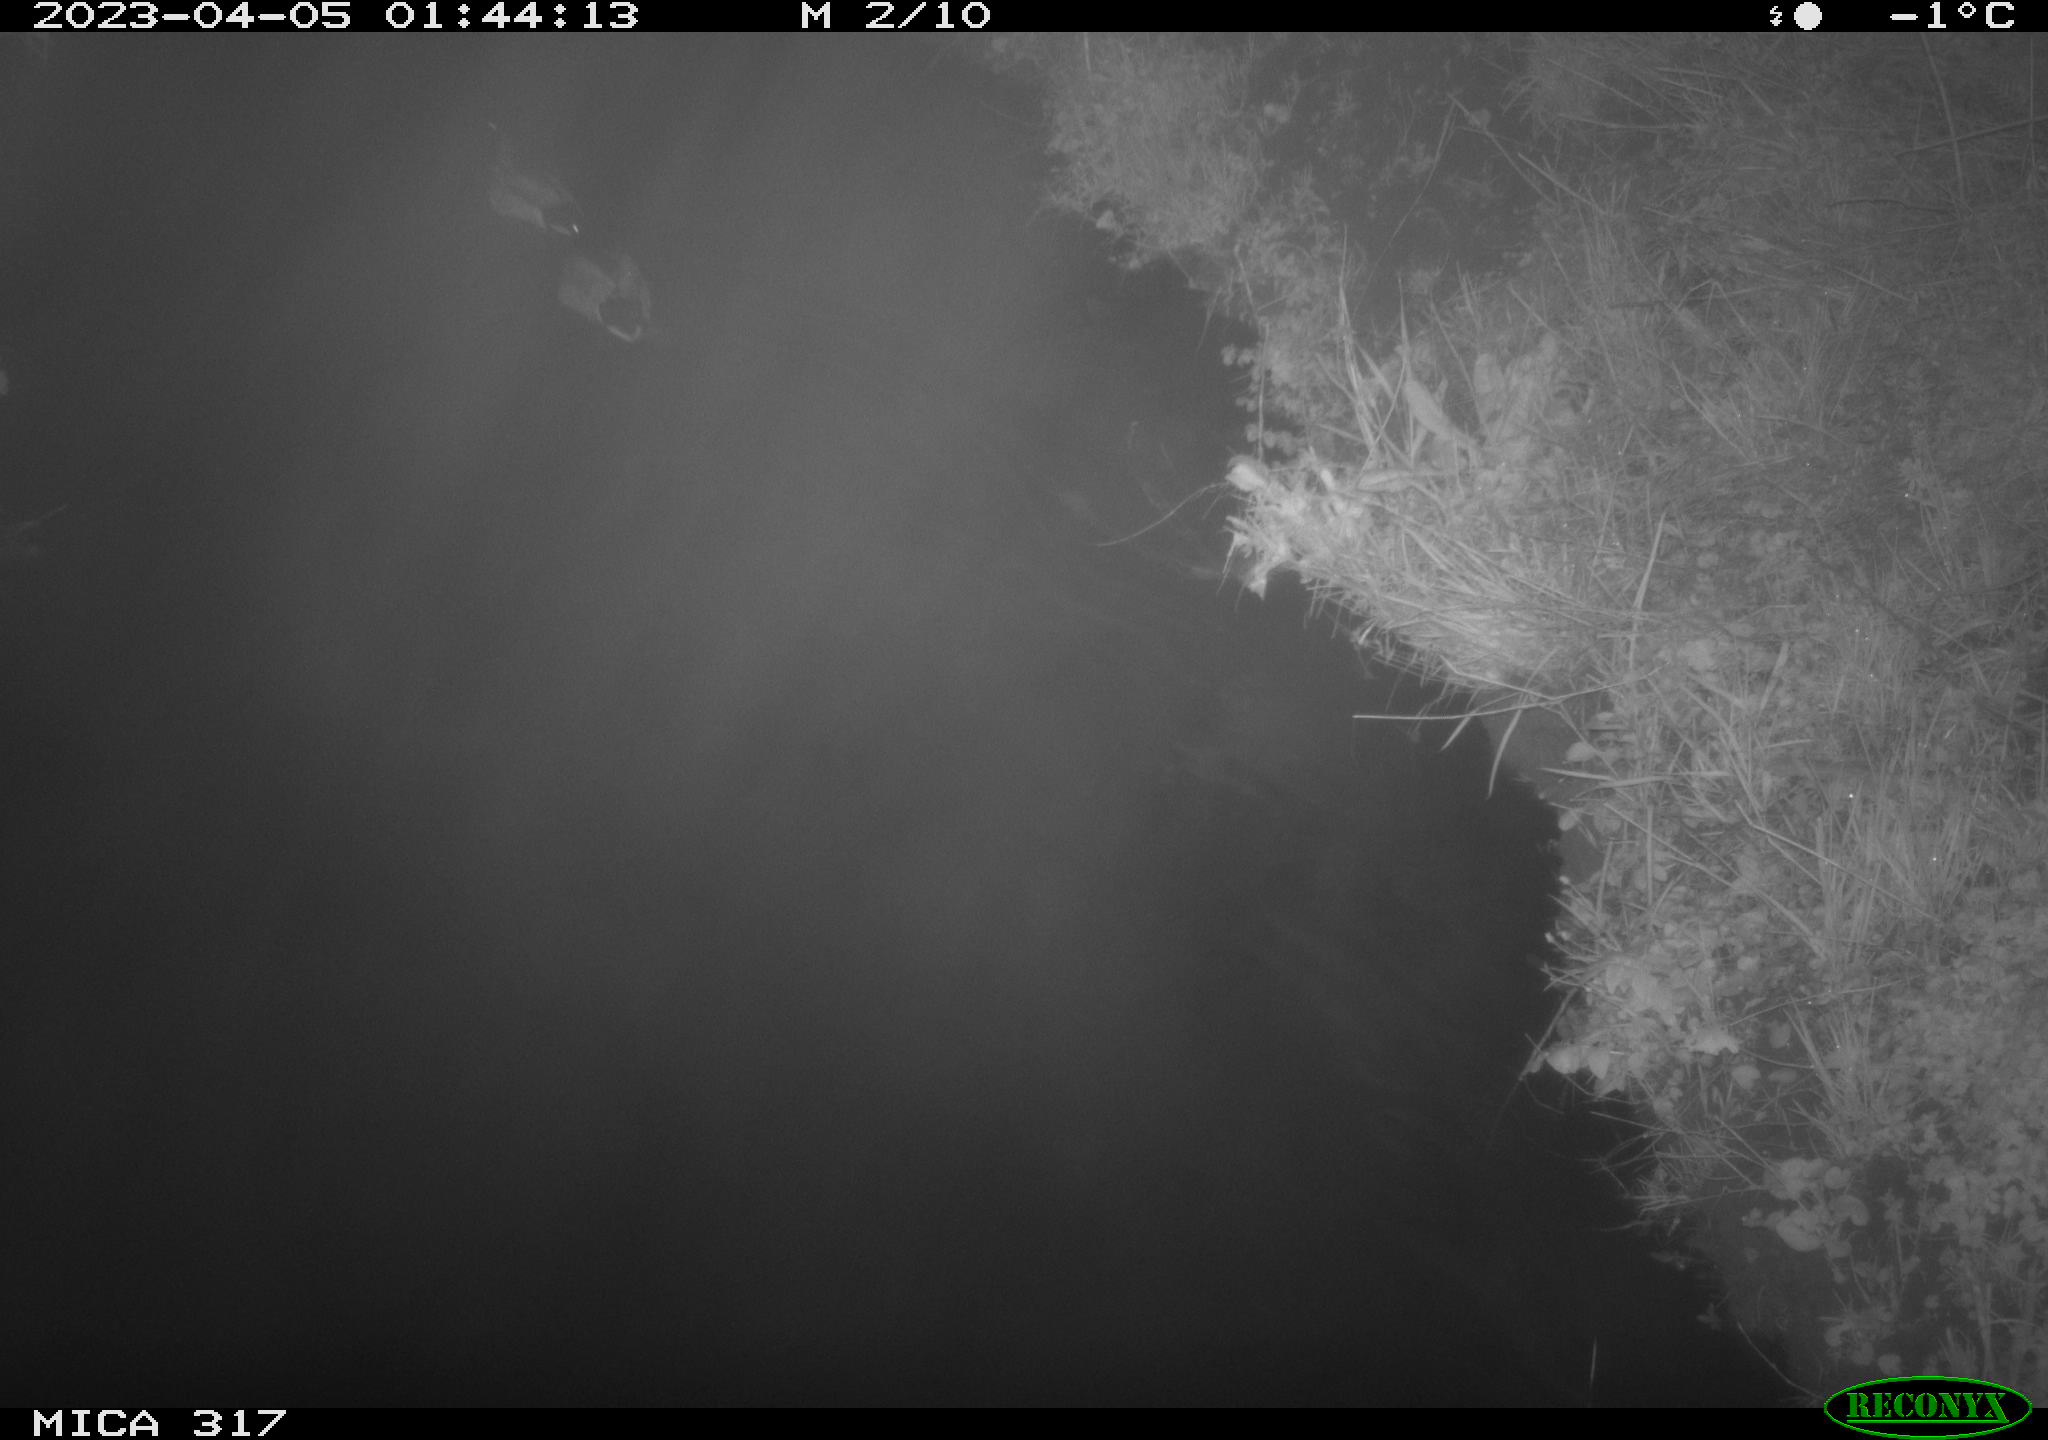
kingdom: Animalia
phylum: Chordata
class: Aves
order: Anseriformes
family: Anatidae
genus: Anas
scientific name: Anas
